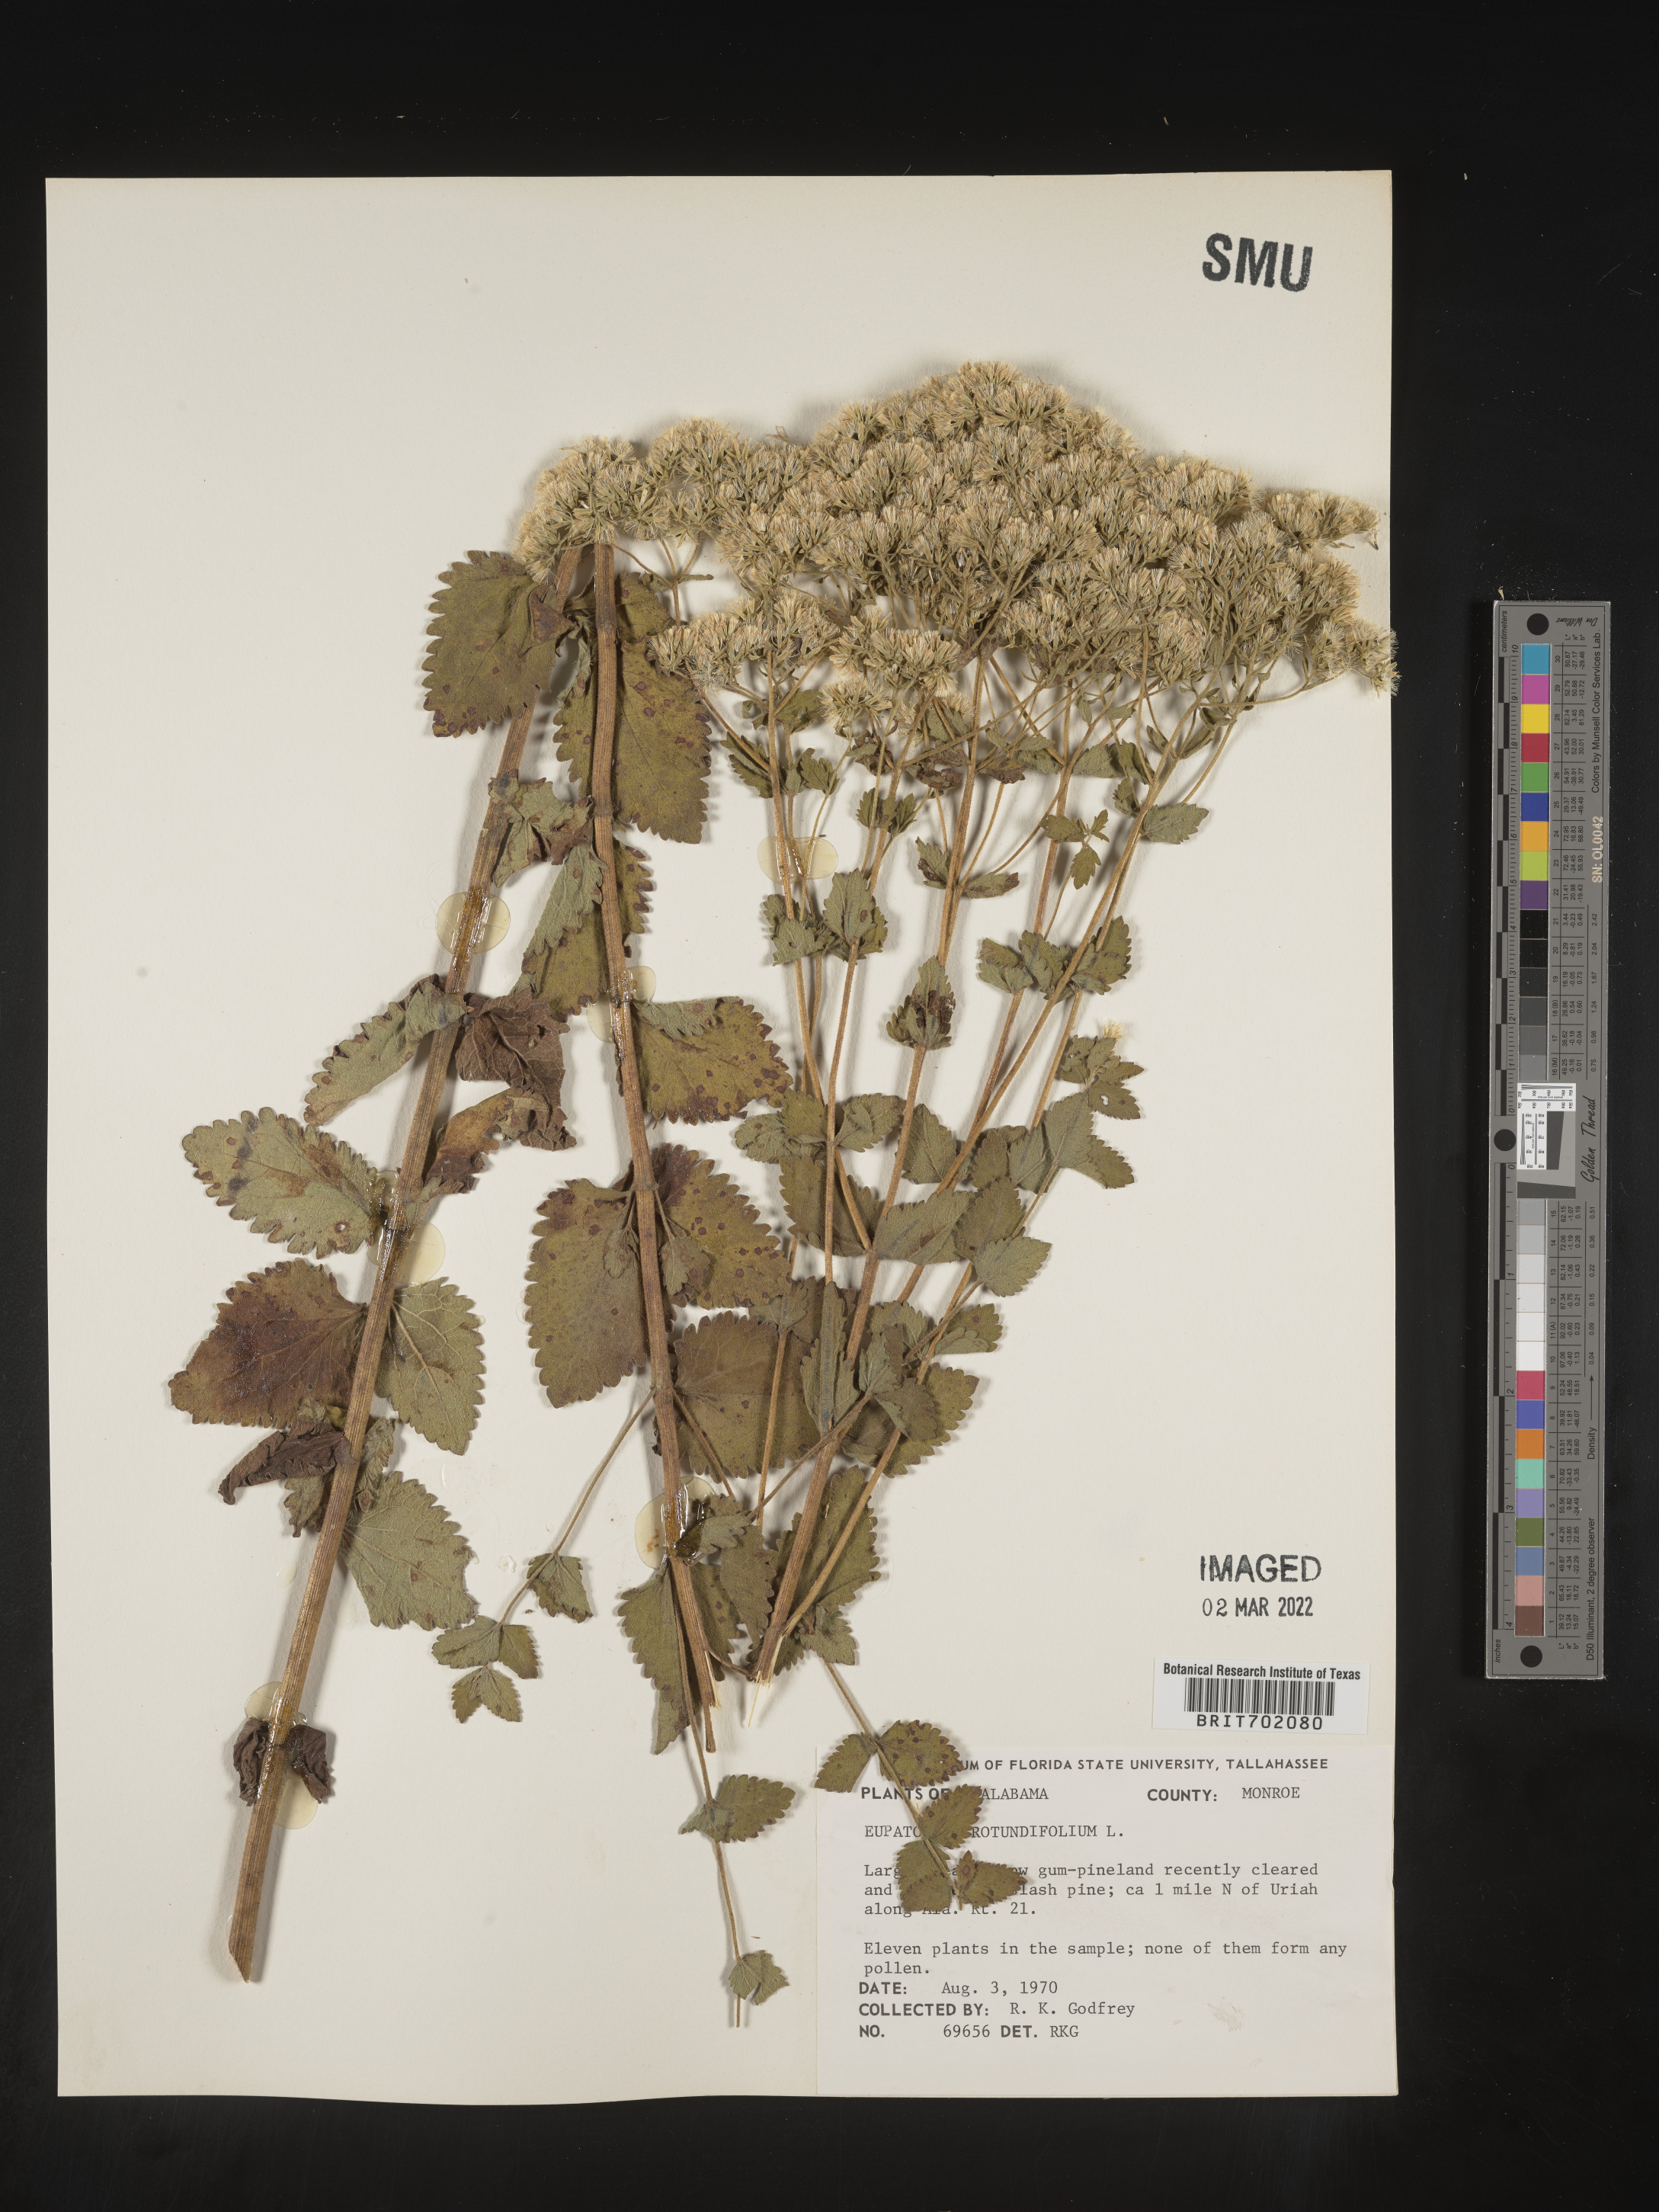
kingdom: Plantae
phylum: Tracheophyta
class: Magnoliopsida
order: Asterales
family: Asteraceae
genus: Eupatorium
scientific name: Eupatorium rotundifolium
